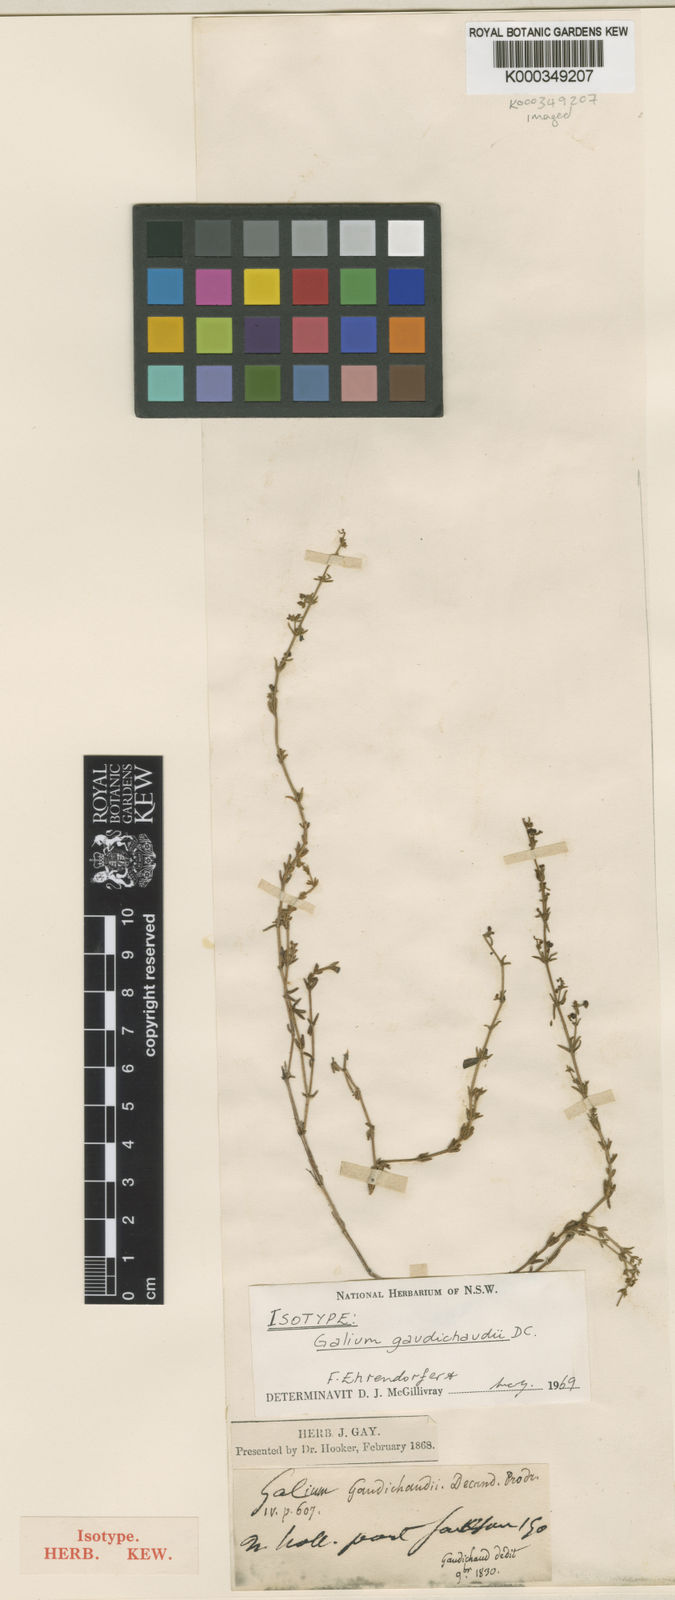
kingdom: Plantae
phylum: Tracheophyta
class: Magnoliopsida
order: Gentianales
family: Rubiaceae
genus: Galium
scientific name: Galium gaudichaudii
